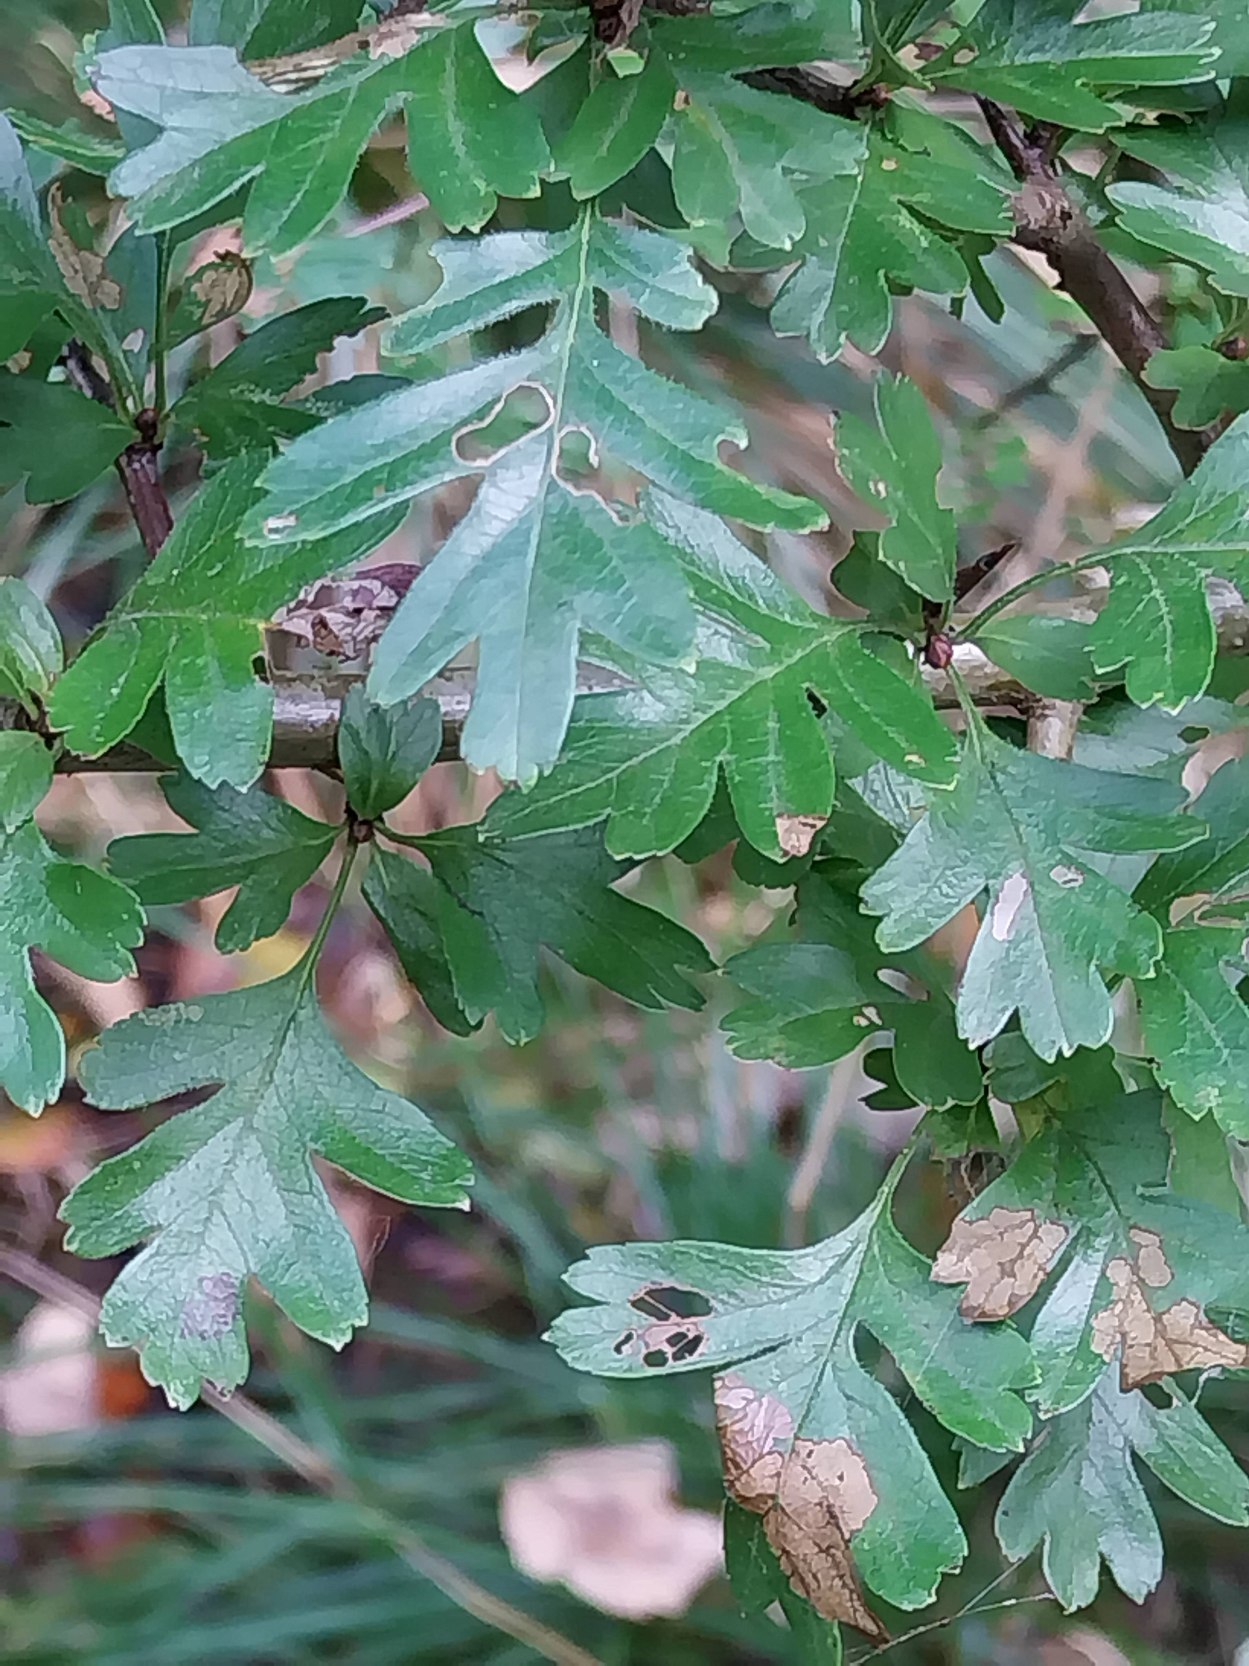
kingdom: Plantae
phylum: Tracheophyta
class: Magnoliopsida
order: Rosales
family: Rosaceae
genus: Crataegus
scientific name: Crataegus monogyna
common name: Engriflet hvidtjørn
